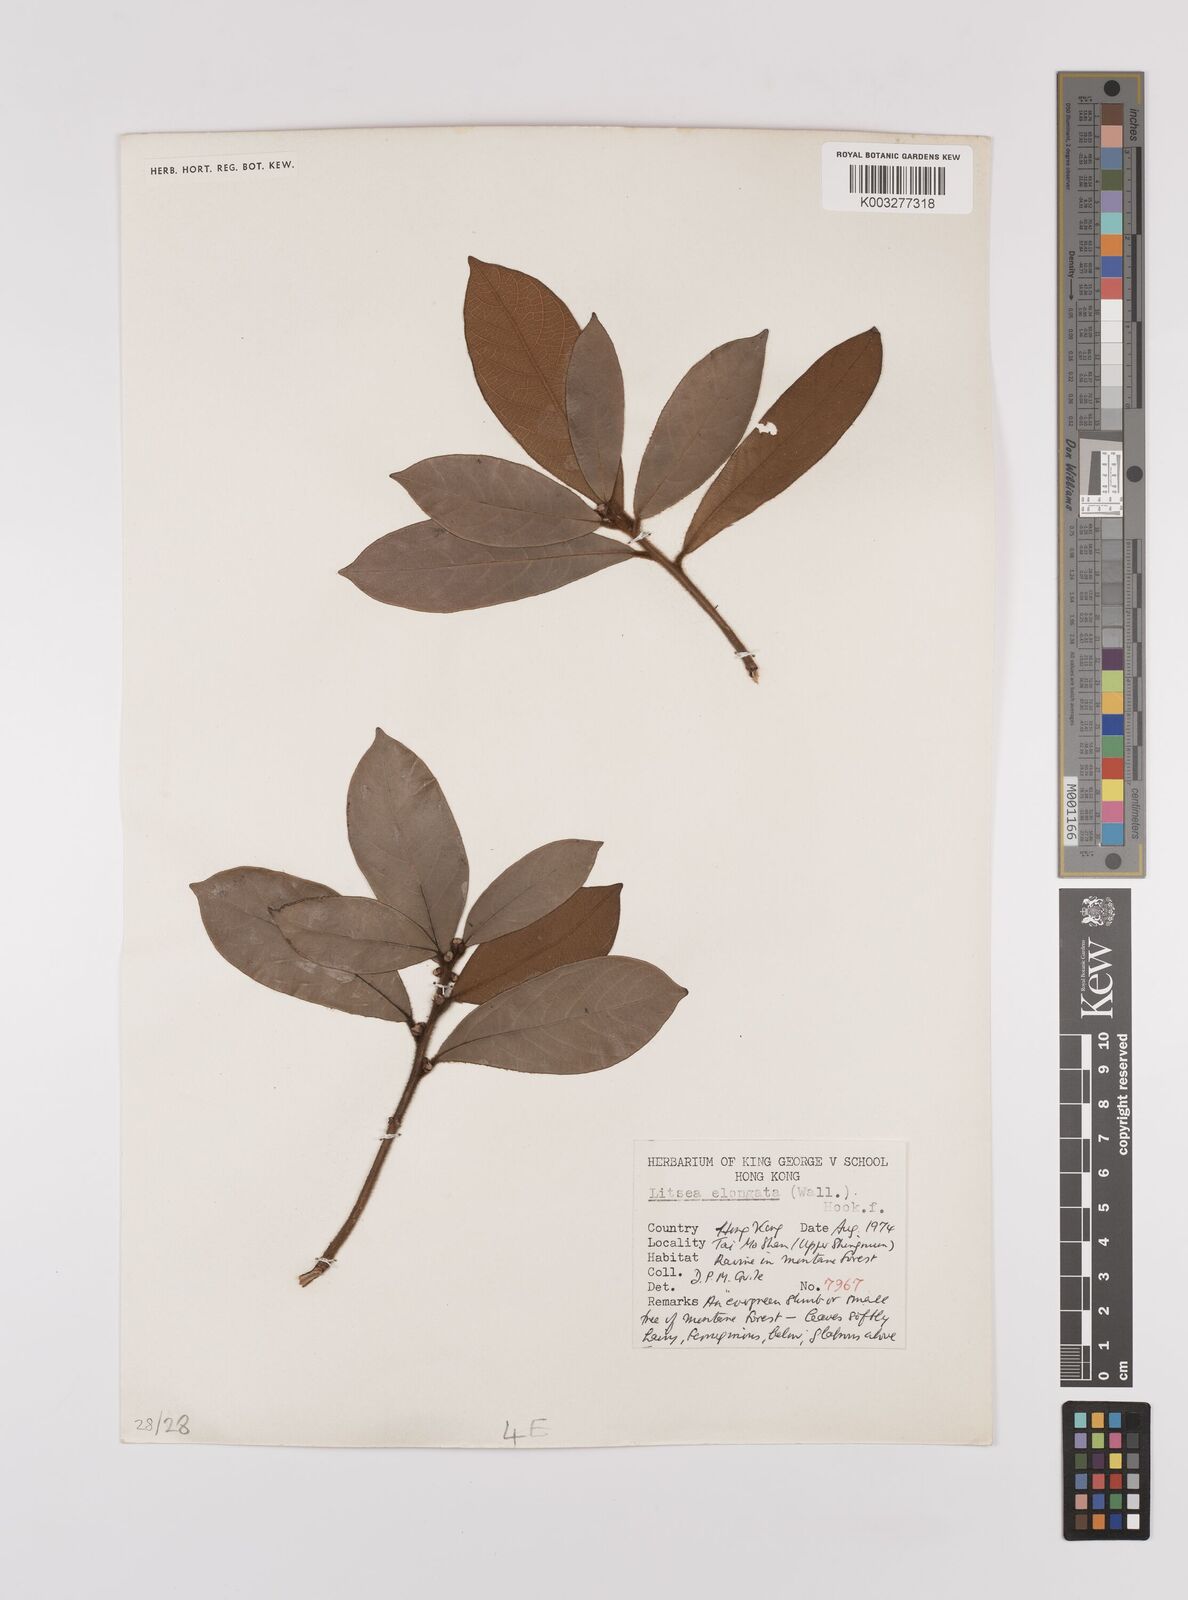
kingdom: Plantae
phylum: Tracheophyta
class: Magnoliopsida
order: Laurales
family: Lauraceae
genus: Litsea
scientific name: Litsea elongata
